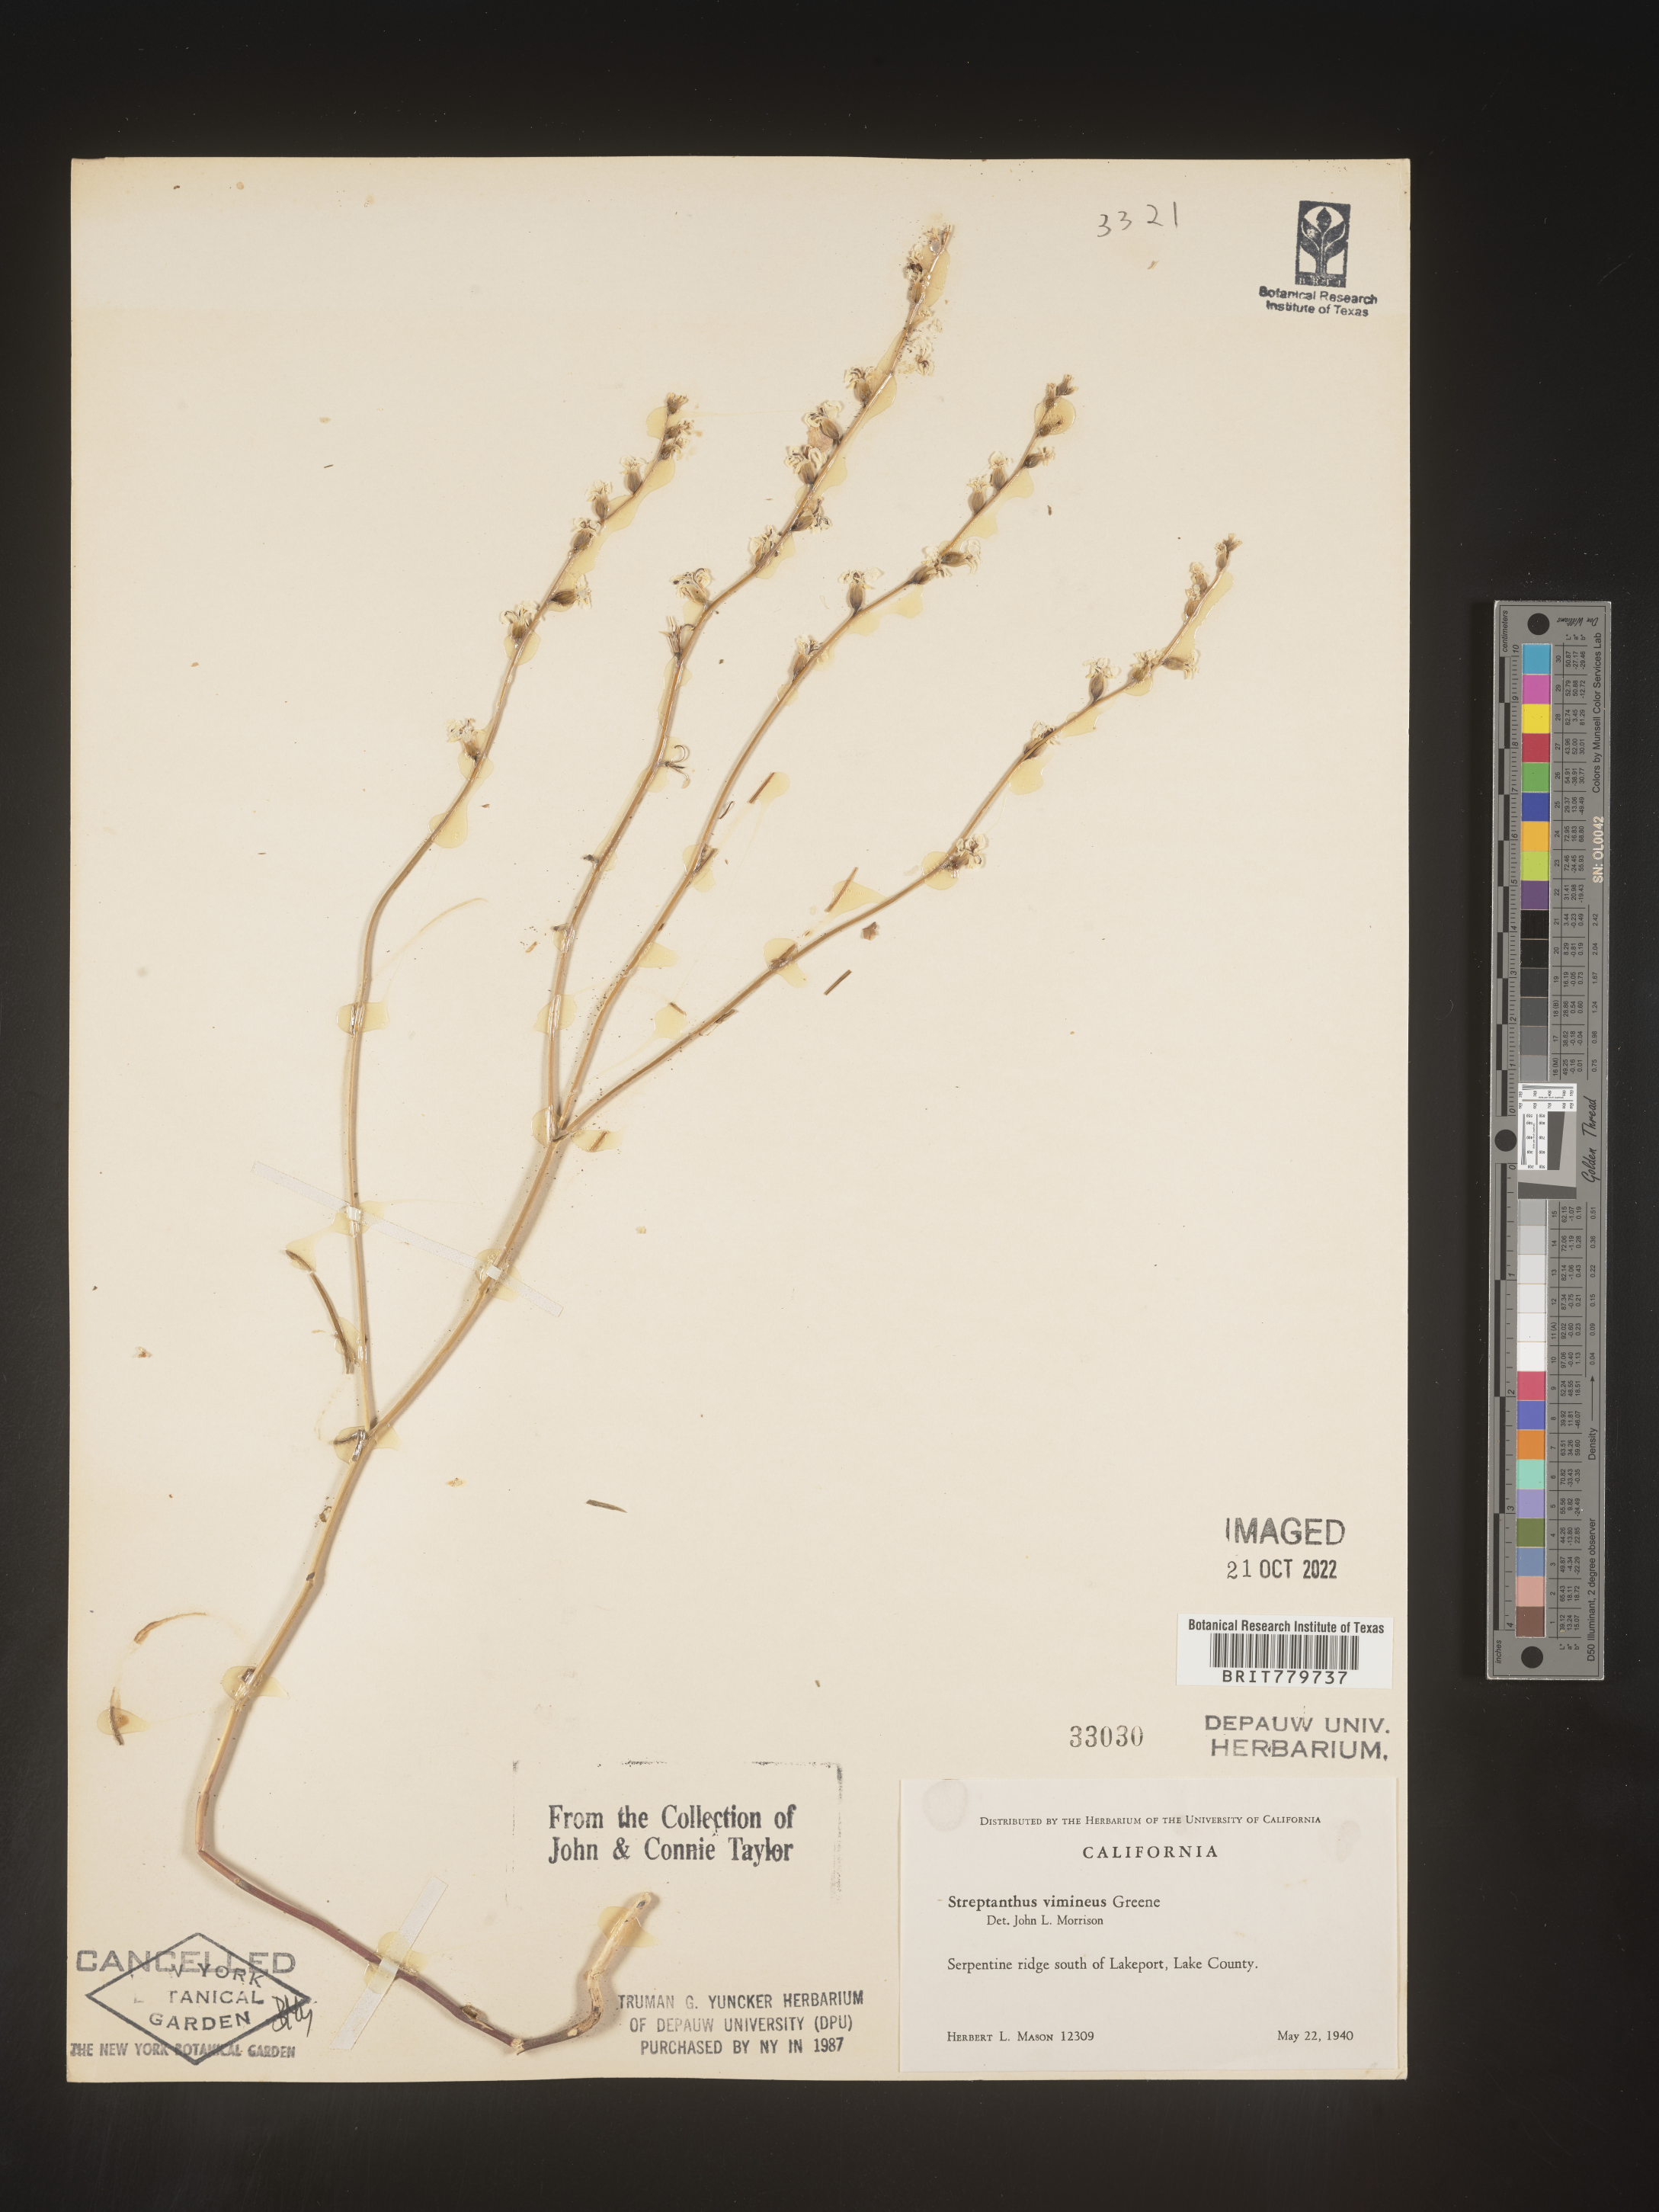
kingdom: Plantae
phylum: Tracheophyta
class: Magnoliopsida
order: Brassicales
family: Brassicaceae
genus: Streptanthus
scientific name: Streptanthus
